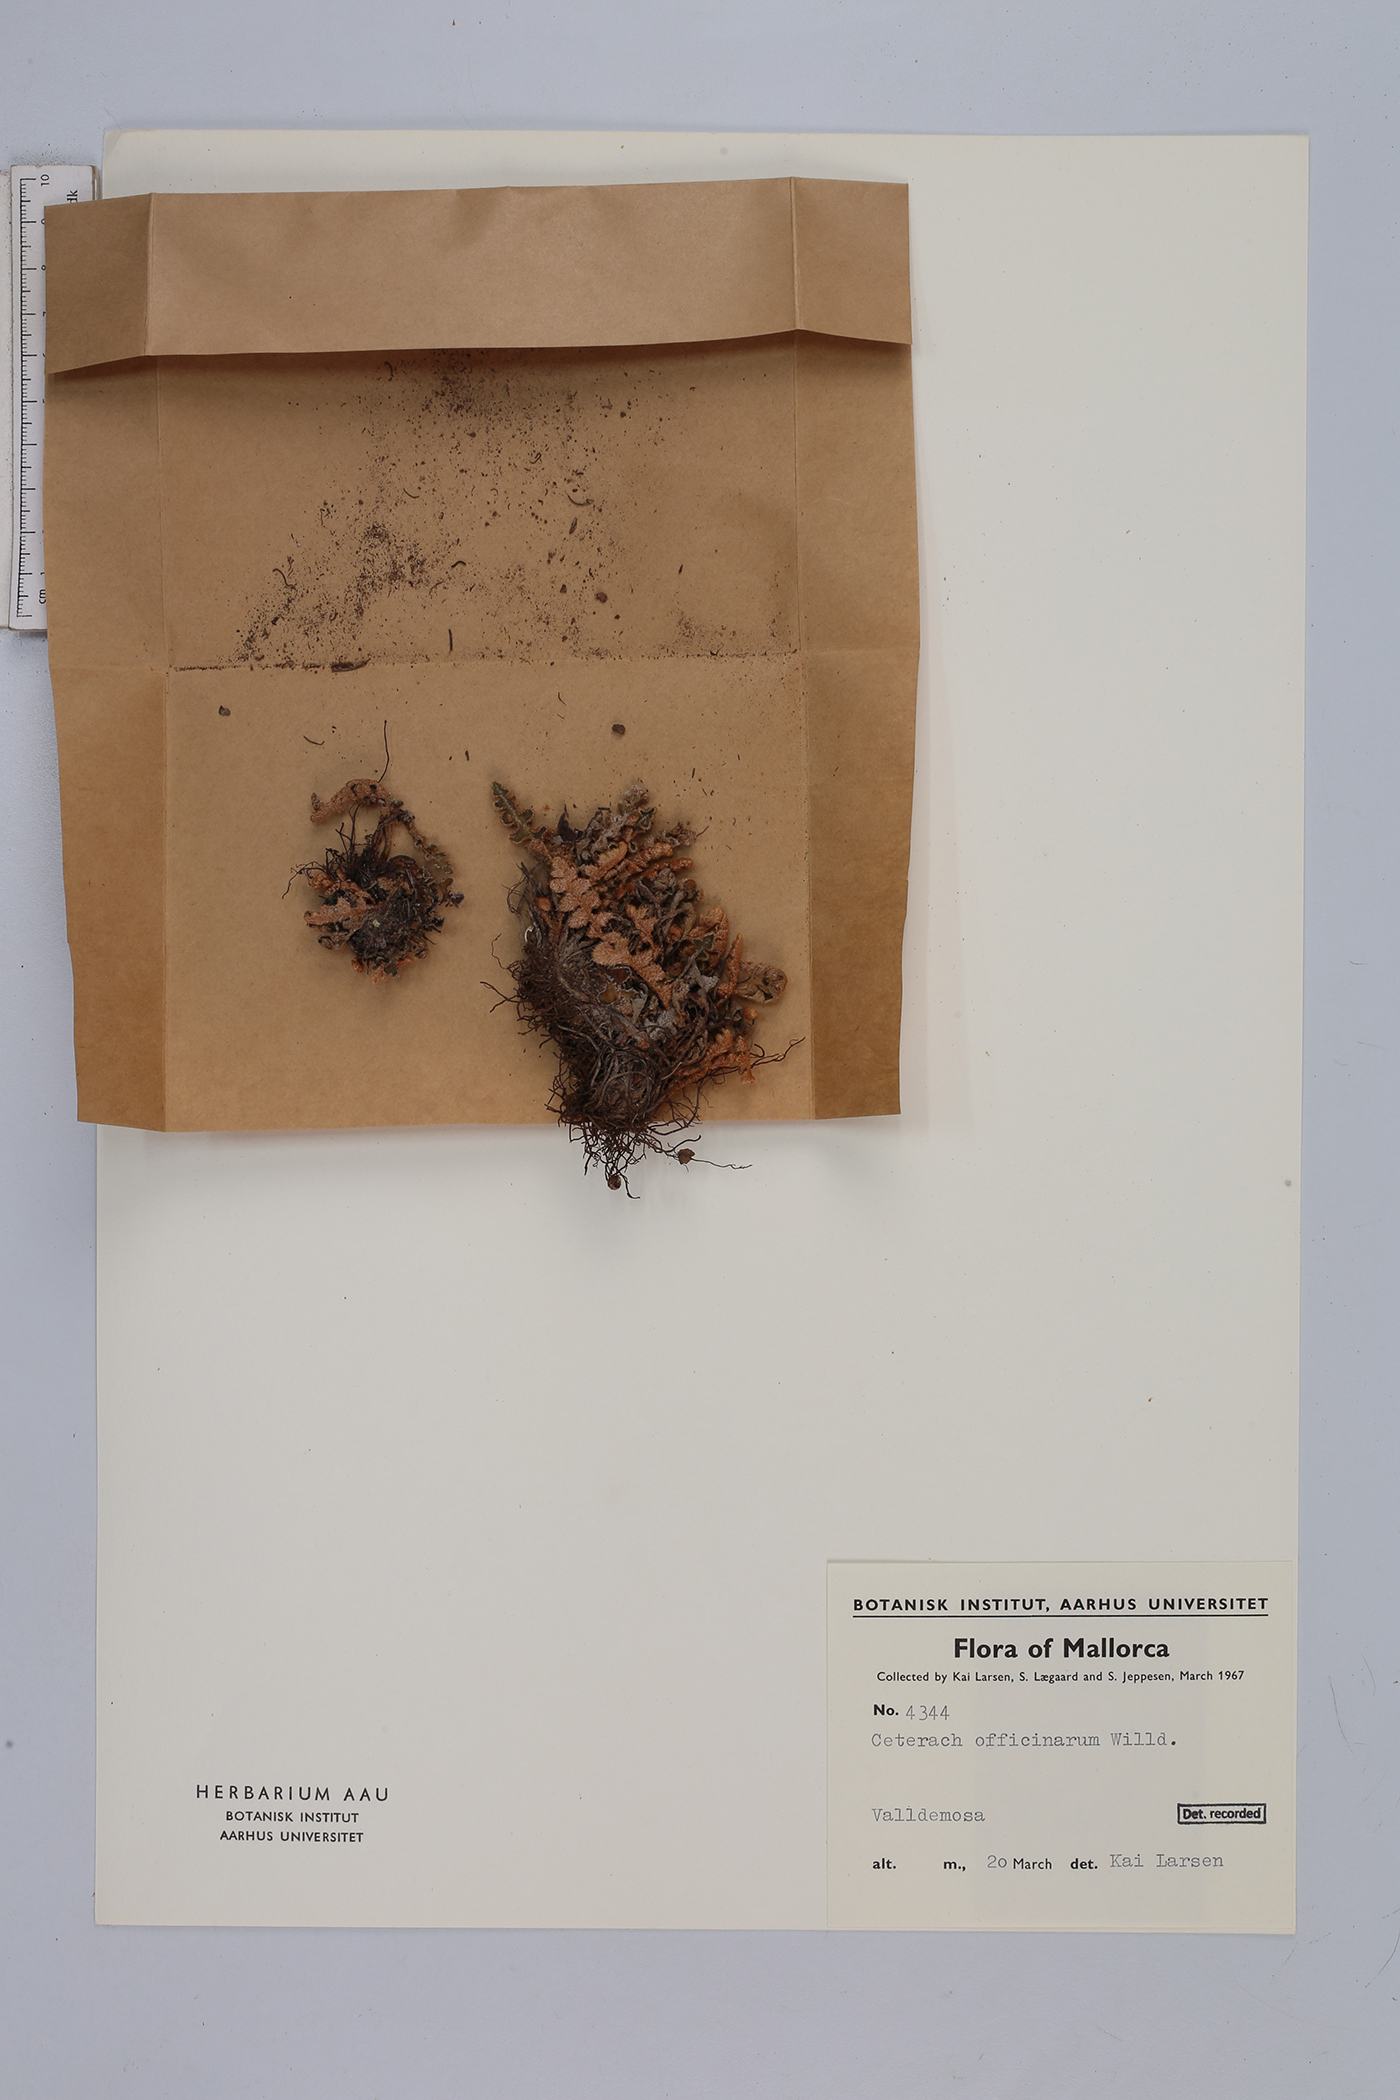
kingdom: Plantae
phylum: Tracheophyta
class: Polypodiopsida
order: Polypodiales
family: Aspleniaceae
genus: Asplenium
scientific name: Asplenium ceterach
